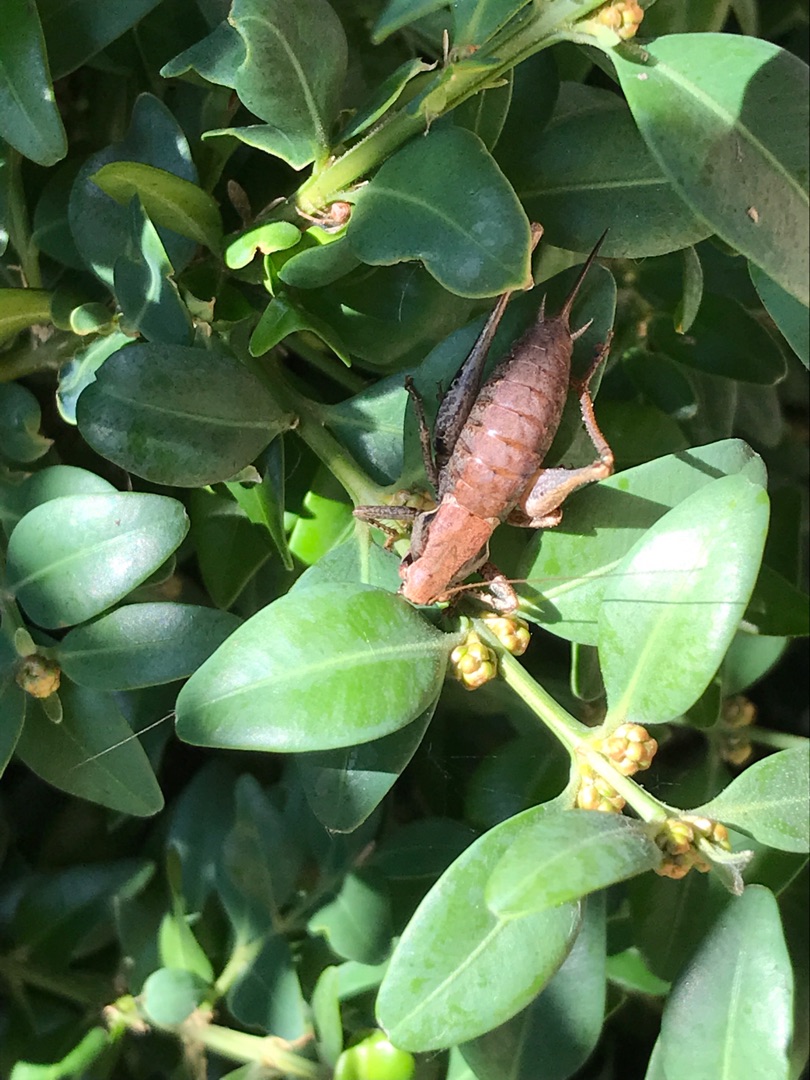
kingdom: Animalia
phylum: Arthropoda
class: Insecta
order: Orthoptera
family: Tettigoniidae
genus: Pholidoptera
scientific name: Pholidoptera griseoaptera
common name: Buskgræshoppe
